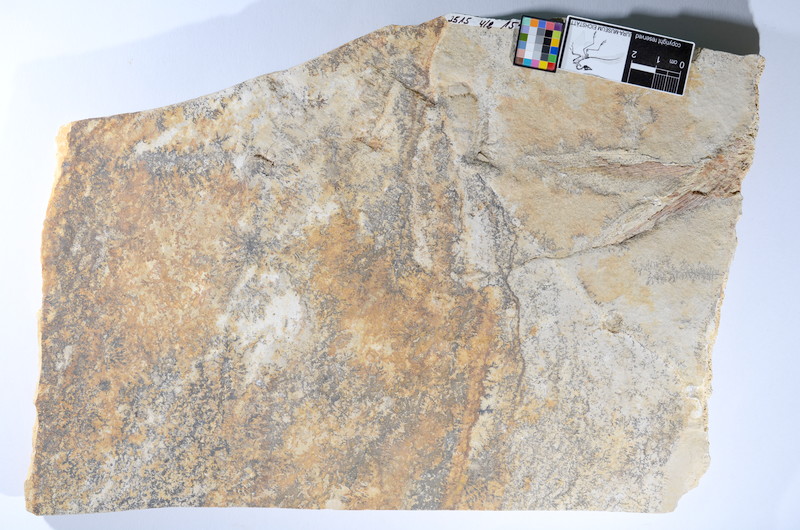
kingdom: Animalia
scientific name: Animalia
